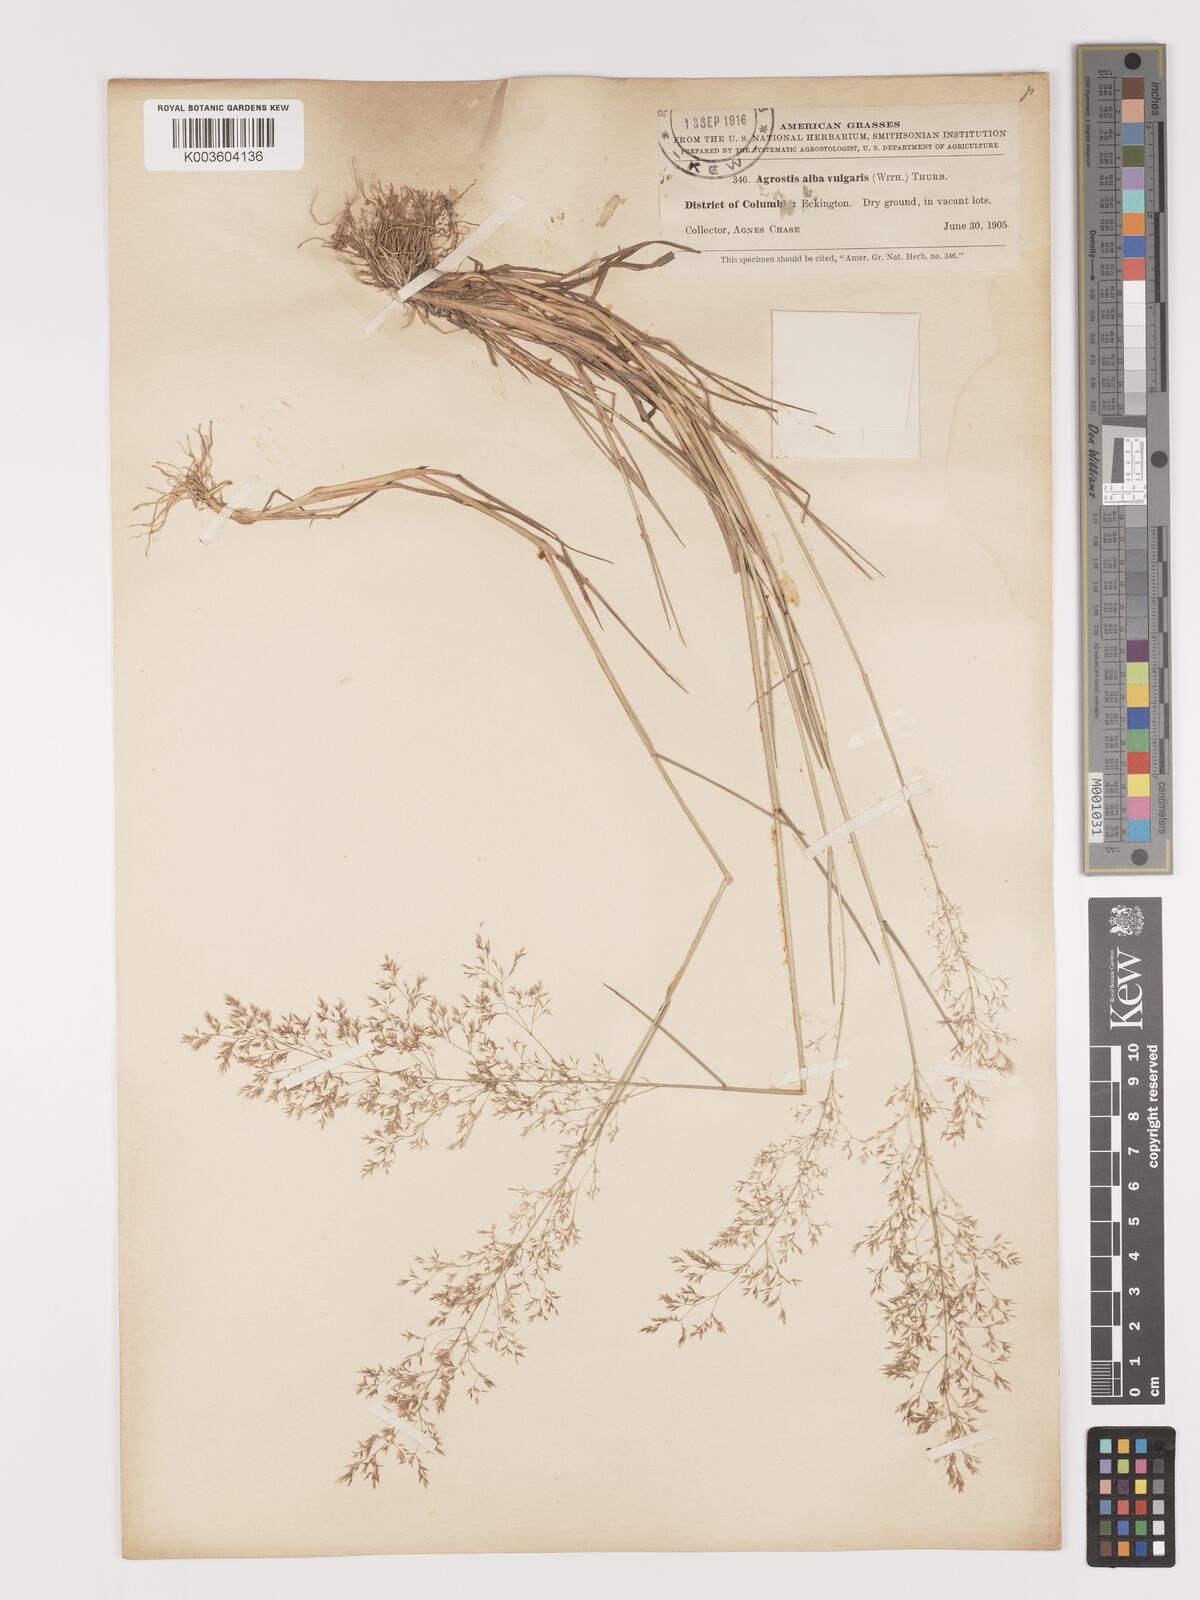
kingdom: Plantae
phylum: Tracheophyta
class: Liliopsida
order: Poales
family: Poaceae
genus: Agrostis
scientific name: Agrostis capillaris
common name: Colonial bentgrass
